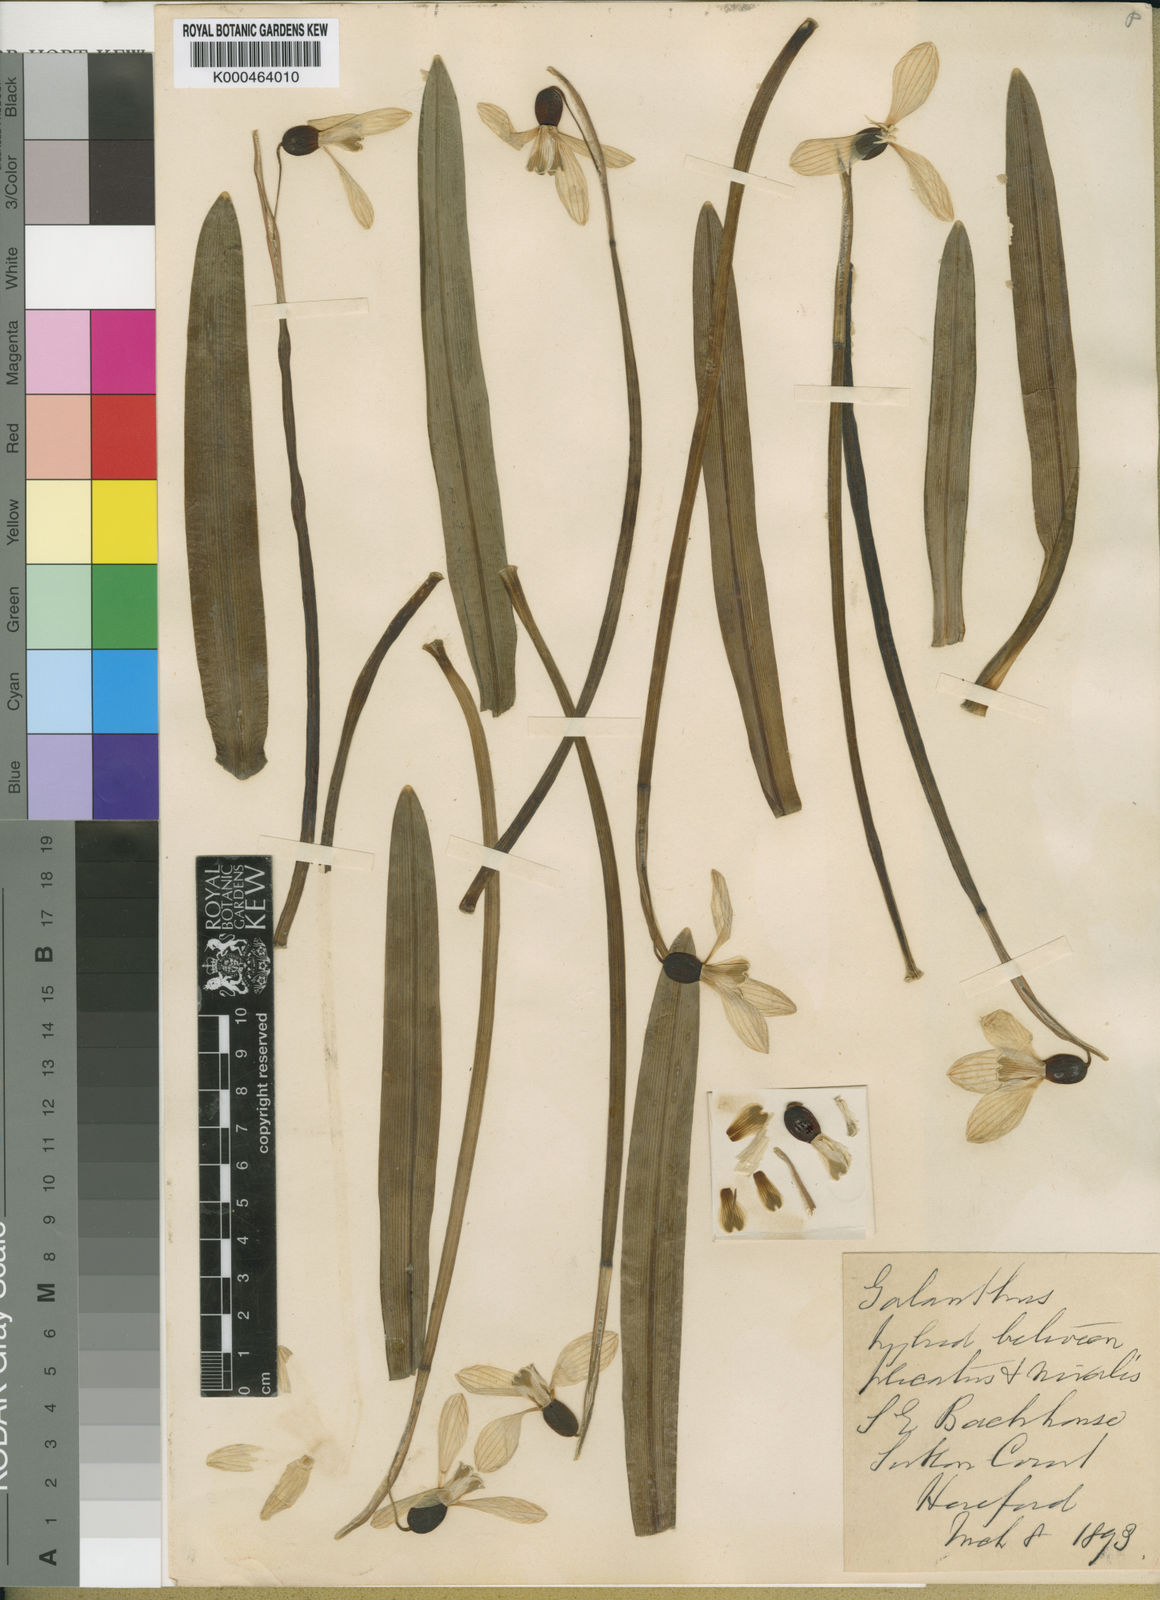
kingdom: Plantae
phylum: Tracheophyta
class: Liliopsida
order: Asparagales
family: Amaryllidaceae
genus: Galanthus
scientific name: Galanthus elwesii
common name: Greater snowdrop
